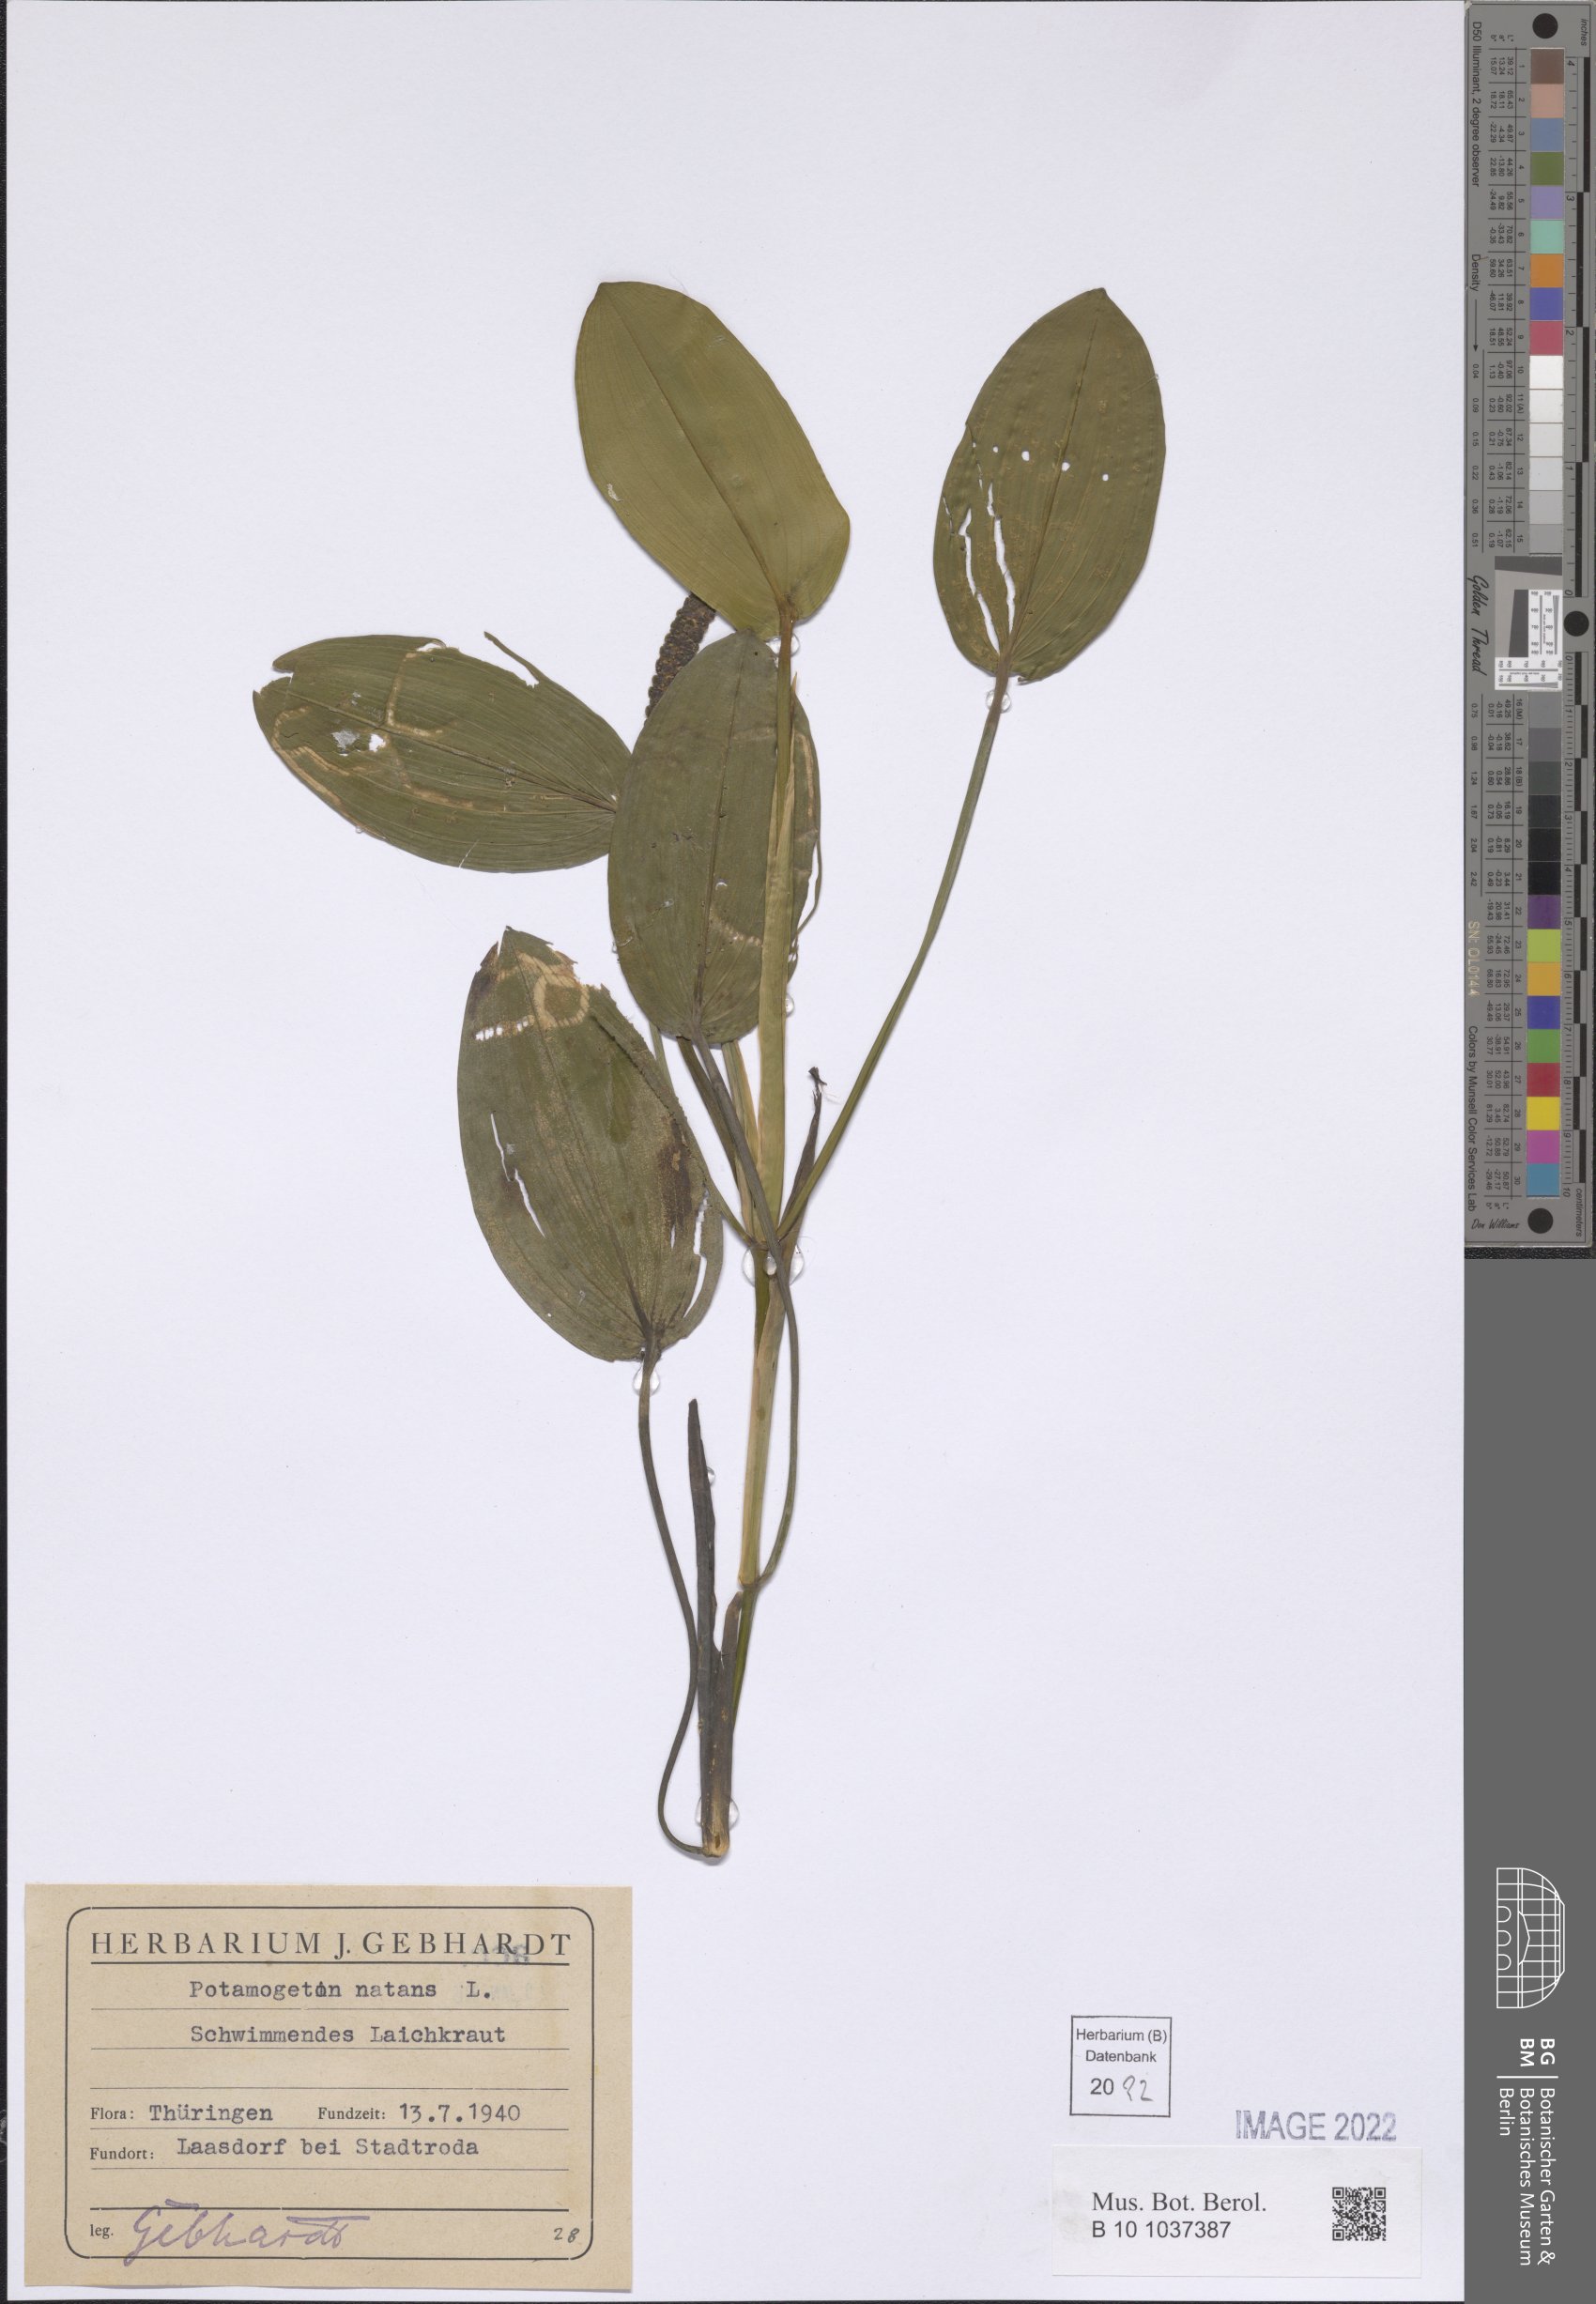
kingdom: Plantae
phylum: Tracheophyta
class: Liliopsida
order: Alismatales
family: Potamogetonaceae
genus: Potamogeton
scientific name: Potamogeton natans
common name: Broad-leaved pondweed
